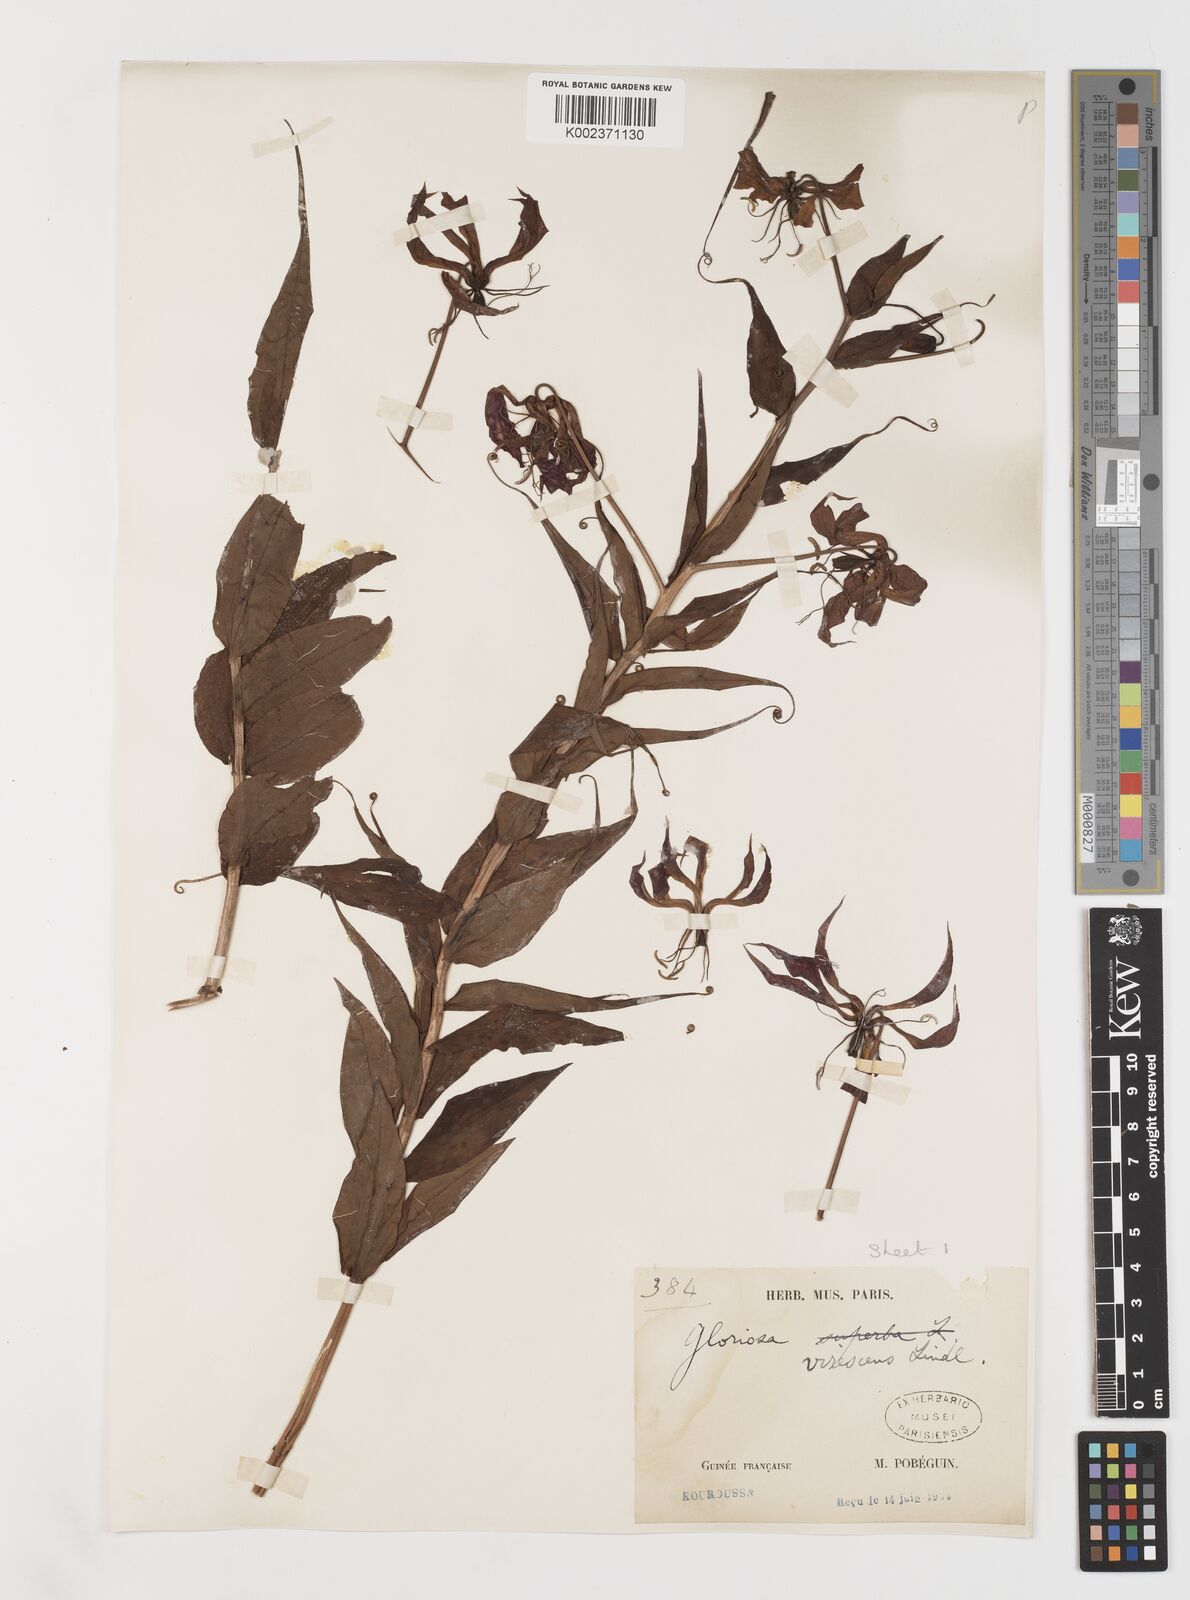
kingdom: Plantae
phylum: Tracheophyta
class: Liliopsida
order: Liliales
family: Colchicaceae
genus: Gloriosa
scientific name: Gloriosa superba
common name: Flame lily
